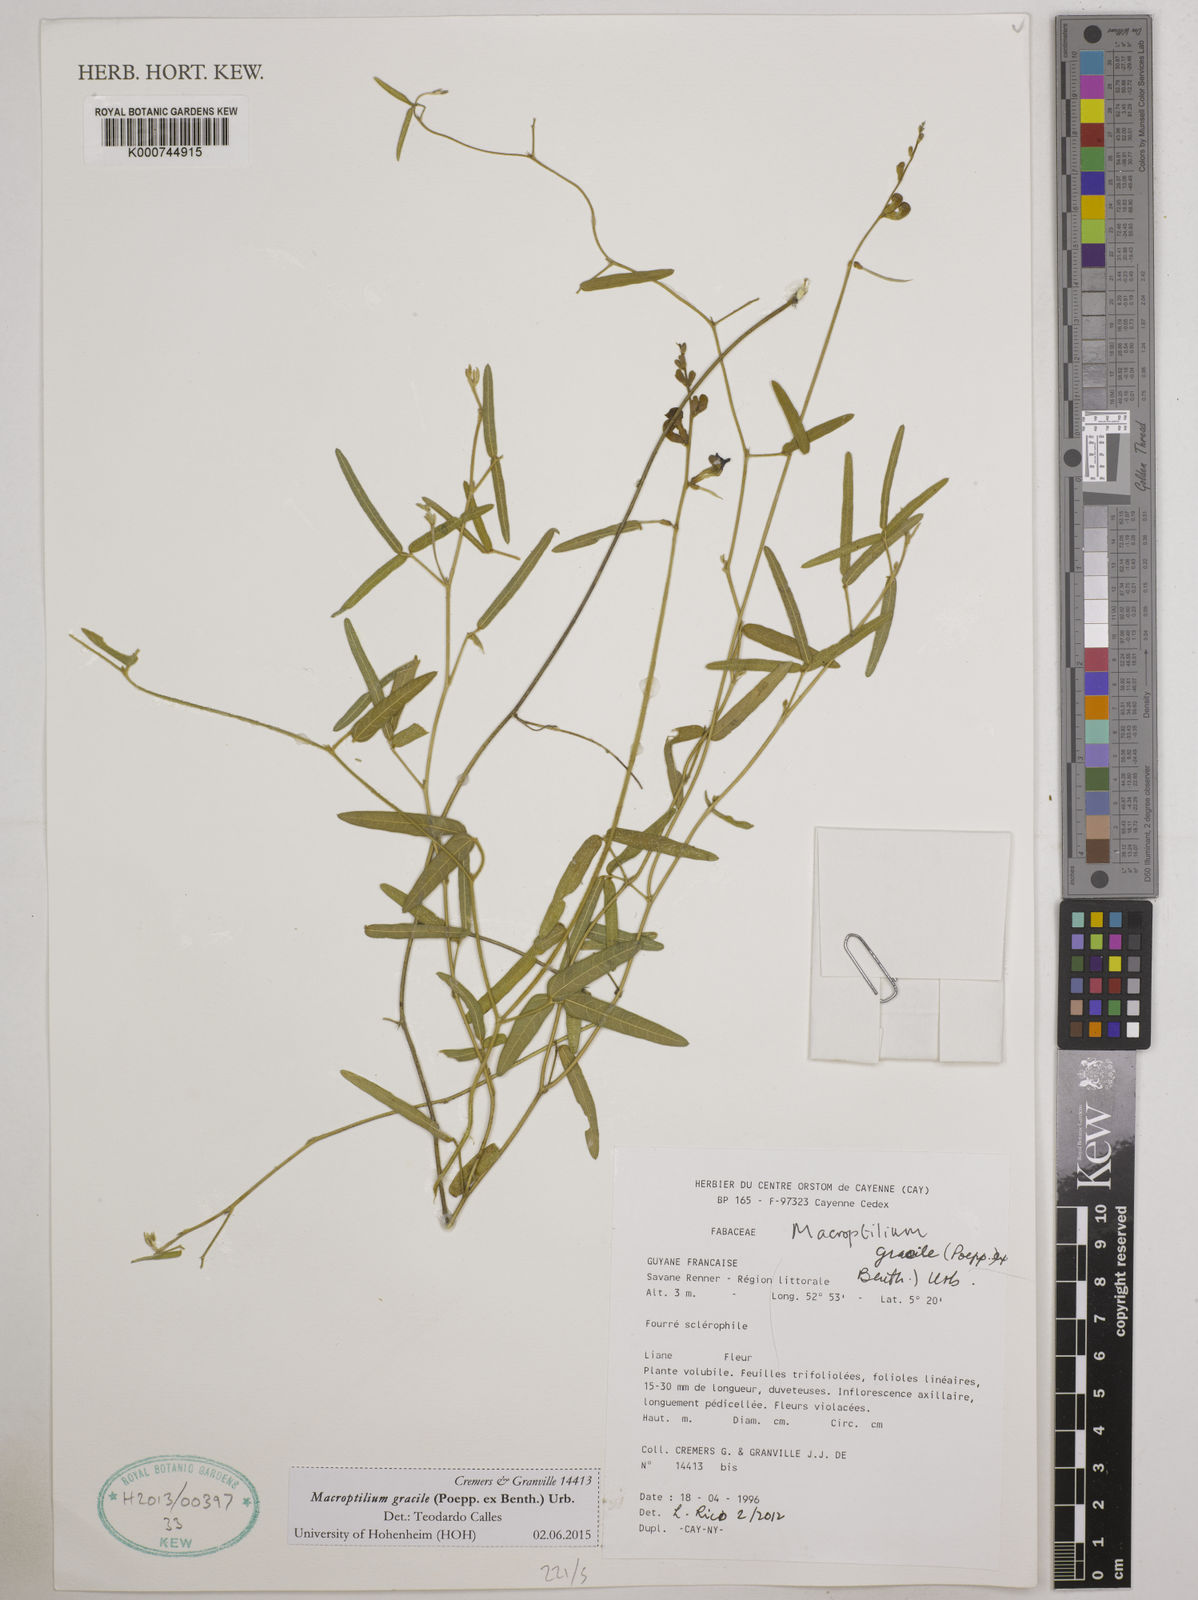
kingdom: Plantae
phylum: Tracheophyta
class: Magnoliopsida
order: Fabales
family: Fabaceae
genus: Macroptilium
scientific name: Macroptilium gracile
